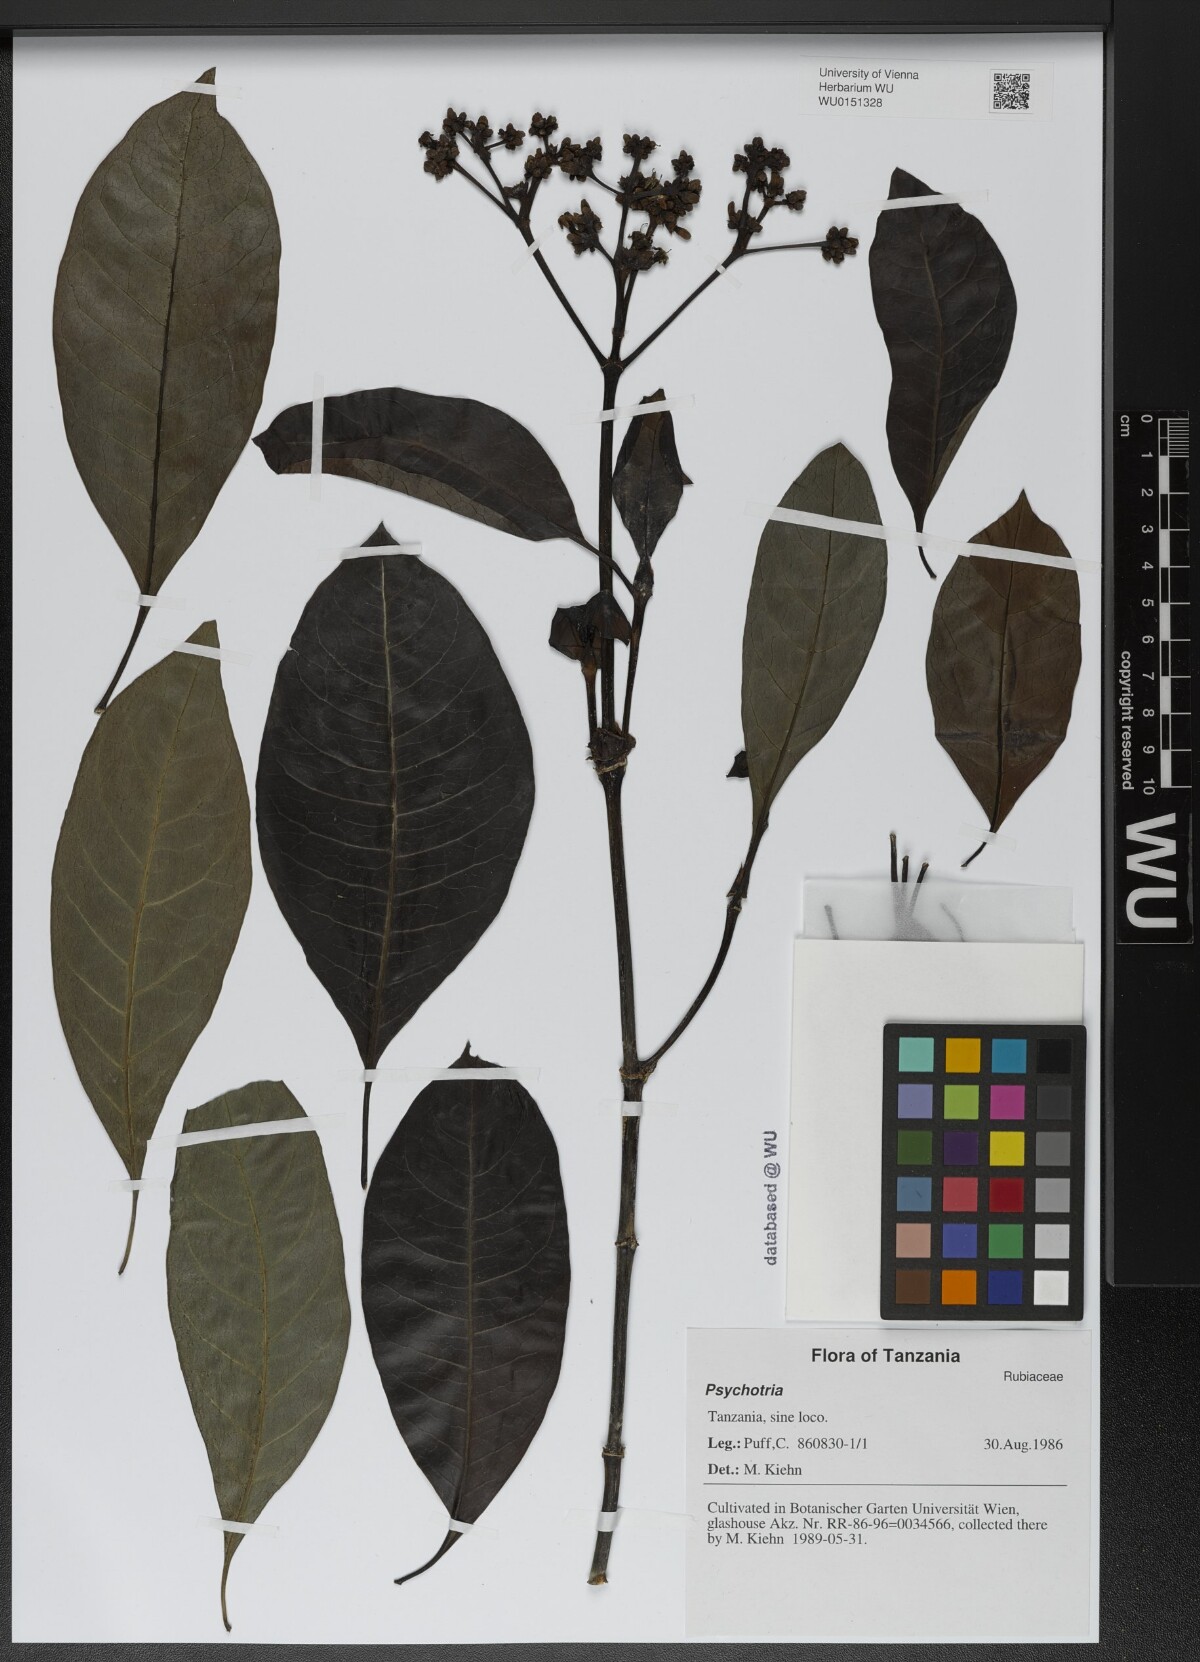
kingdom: Plantae
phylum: Tracheophyta
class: Magnoliopsida
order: Gentianales
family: Rubiaceae
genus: Psychotria
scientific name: Psychotria
